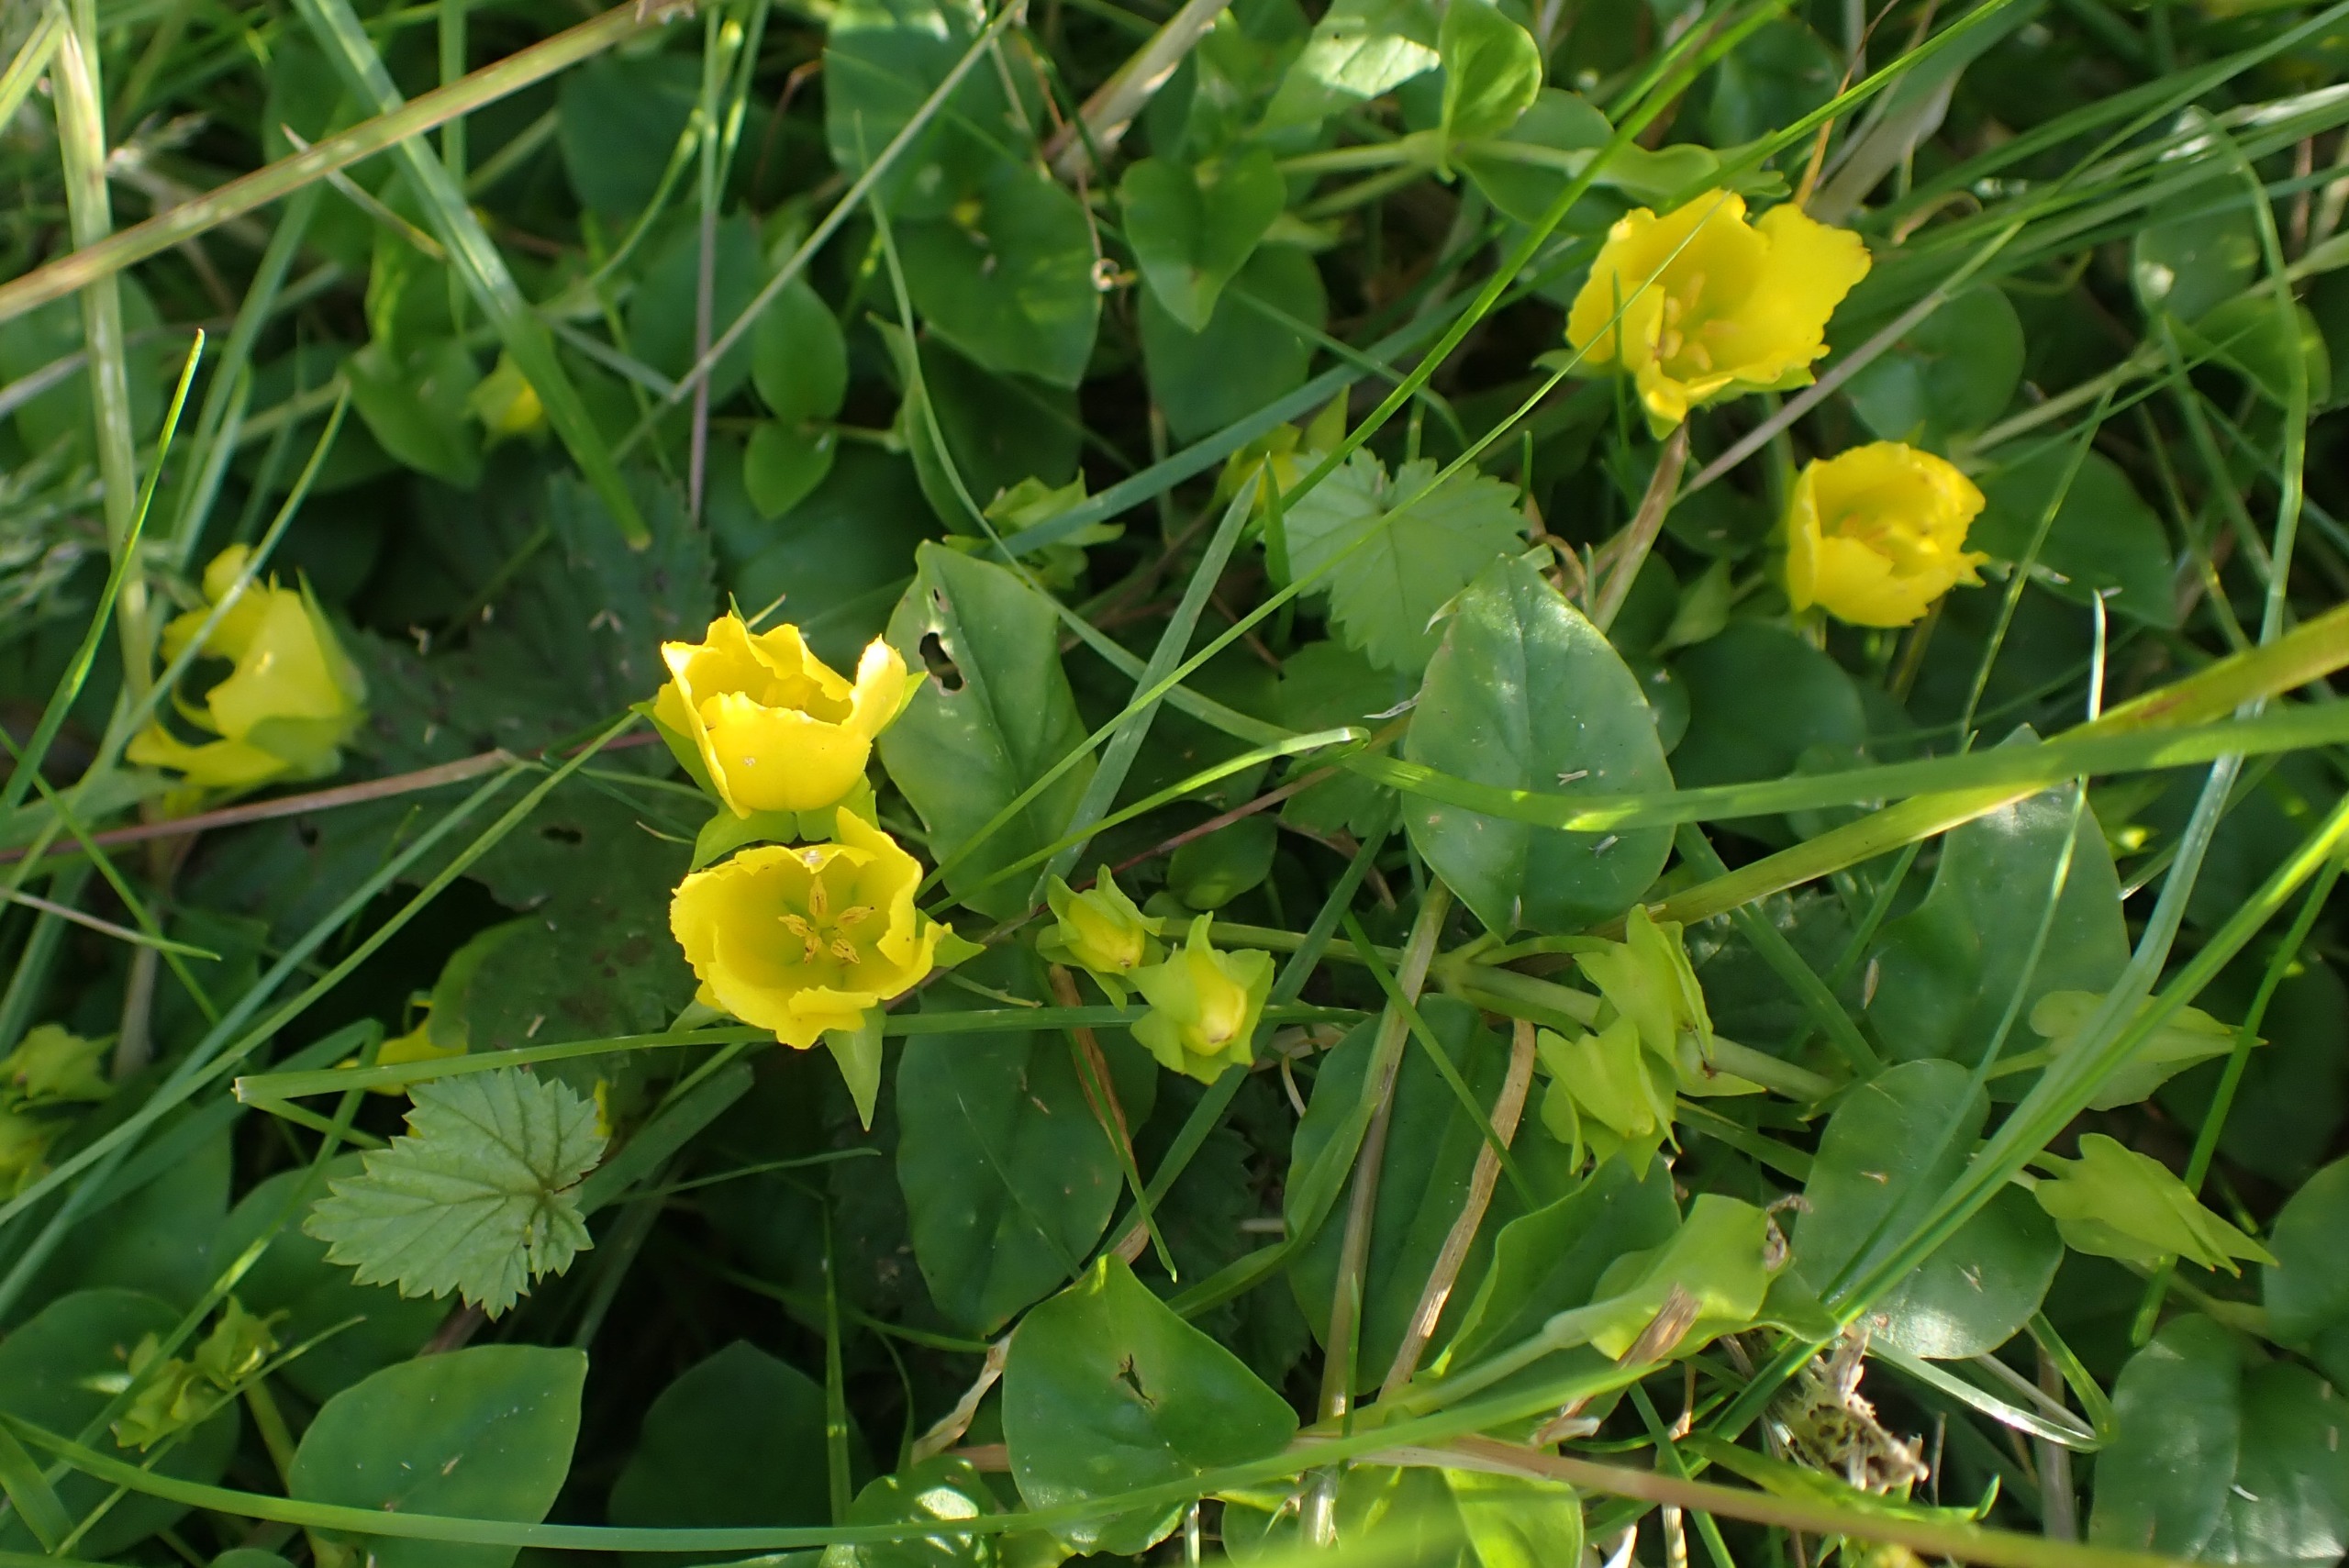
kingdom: Plantae
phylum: Tracheophyta
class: Magnoliopsida
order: Ericales
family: Primulaceae
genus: Lysimachia
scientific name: Lysimachia nummularia
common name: Pengebladet fredløs
